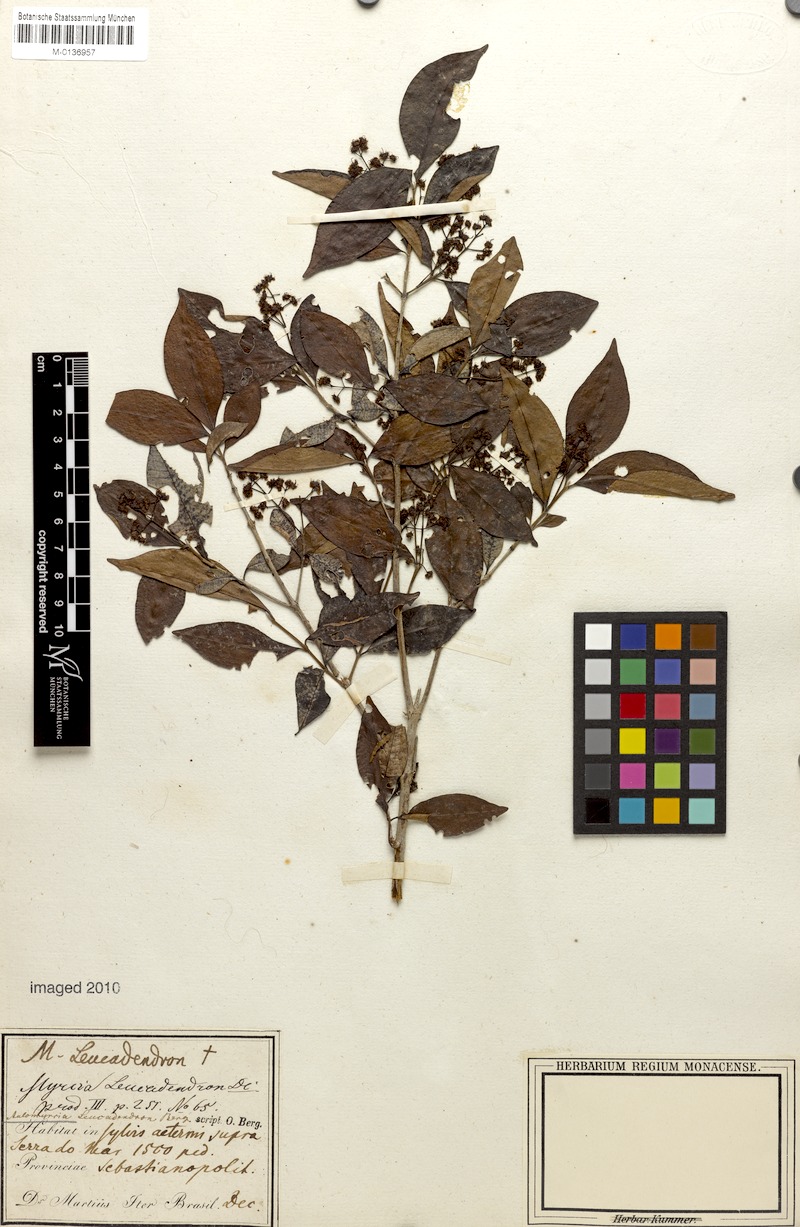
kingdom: Plantae
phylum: Tracheophyta
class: Magnoliopsida
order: Myrtales
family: Myrtaceae
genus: Myrcia
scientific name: Myrcia leucadendron
